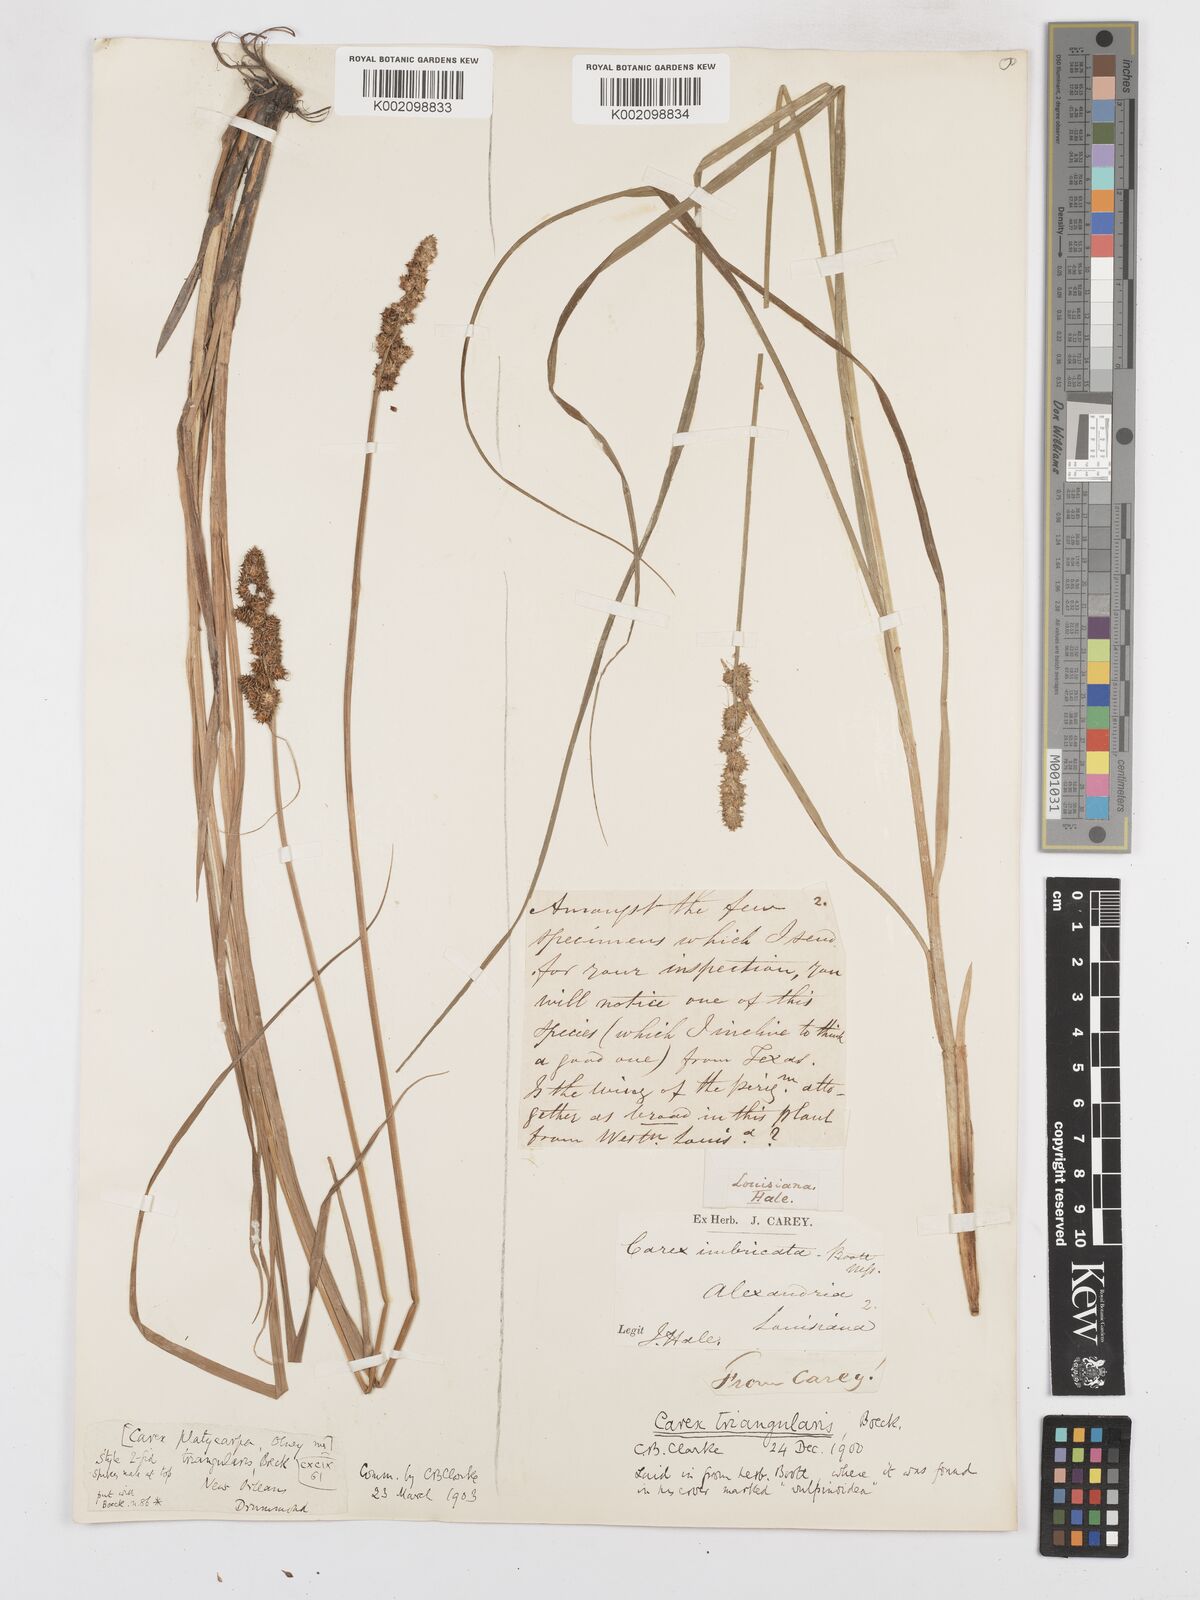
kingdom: Plantae
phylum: Tracheophyta
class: Liliopsida
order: Poales
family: Cyperaceae
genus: Carex
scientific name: Carex triangularis
